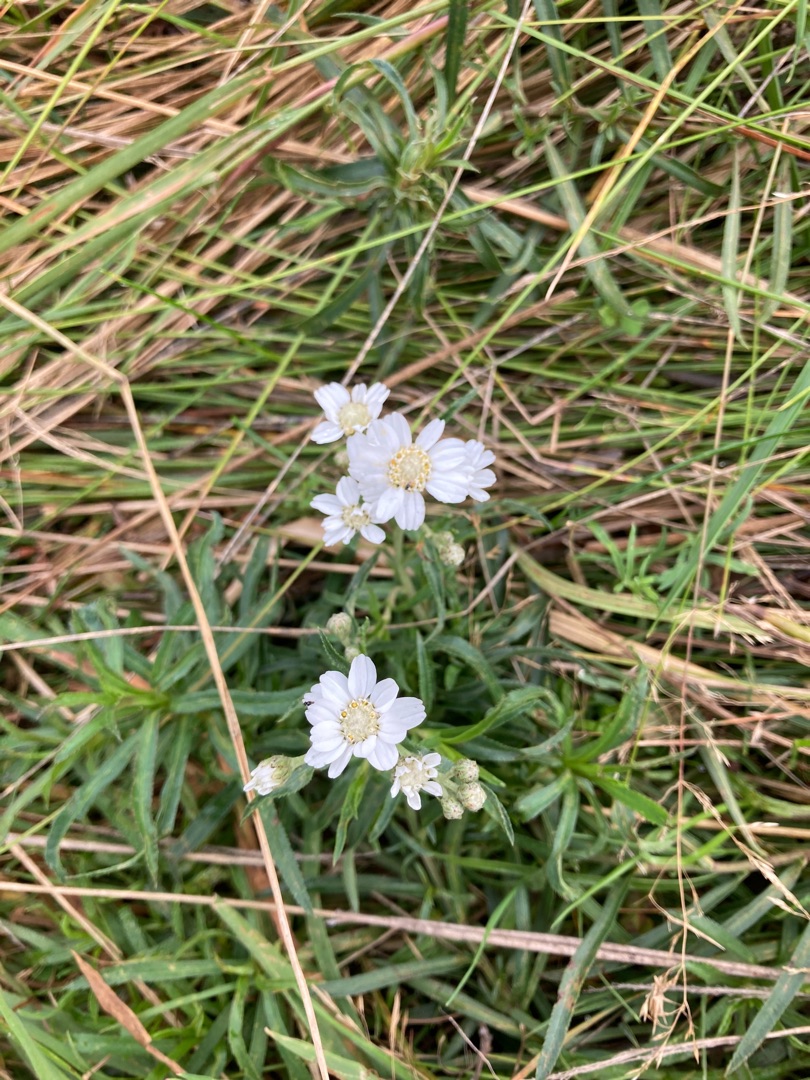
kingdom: Plantae
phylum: Tracheophyta
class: Magnoliopsida
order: Asterales
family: Asteraceae
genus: Achillea
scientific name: Achillea ptarmica
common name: Nyse-røllike
